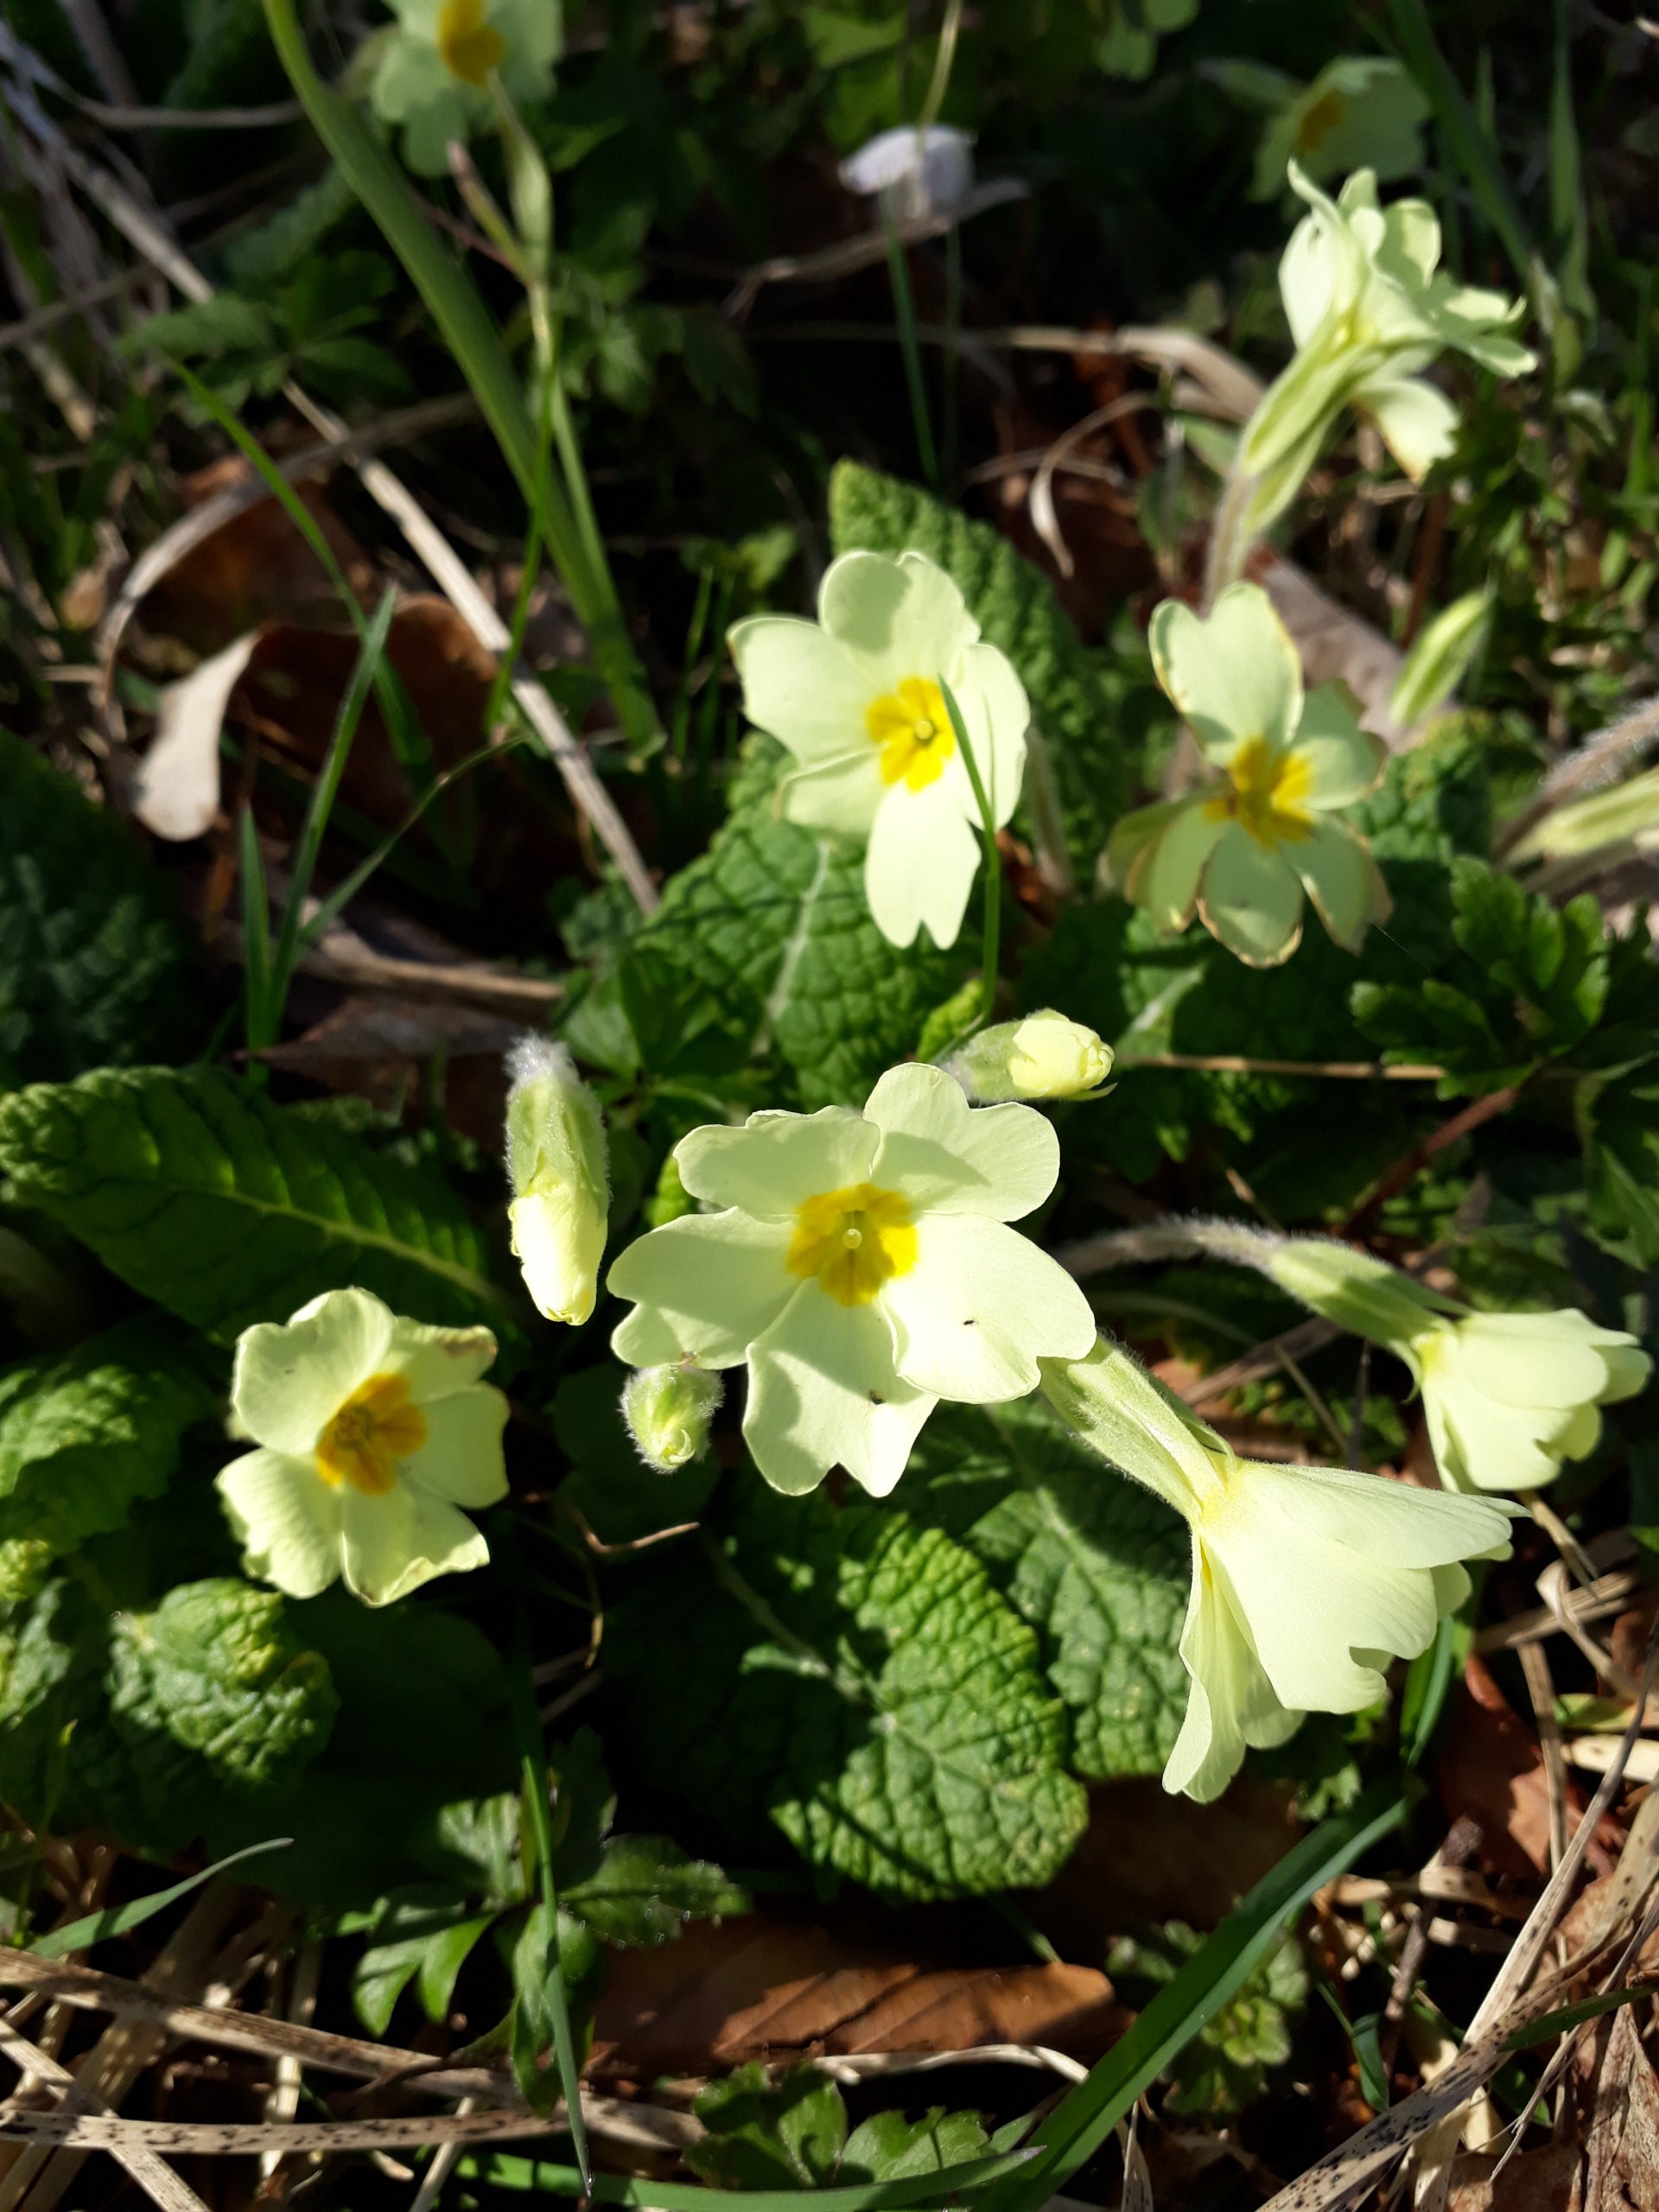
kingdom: Plantae
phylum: Tracheophyta
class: Magnoliopsida
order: Ericales
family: Primulaceae
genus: Primula
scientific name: Primula vulgaris
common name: Storblomstret kodriver
